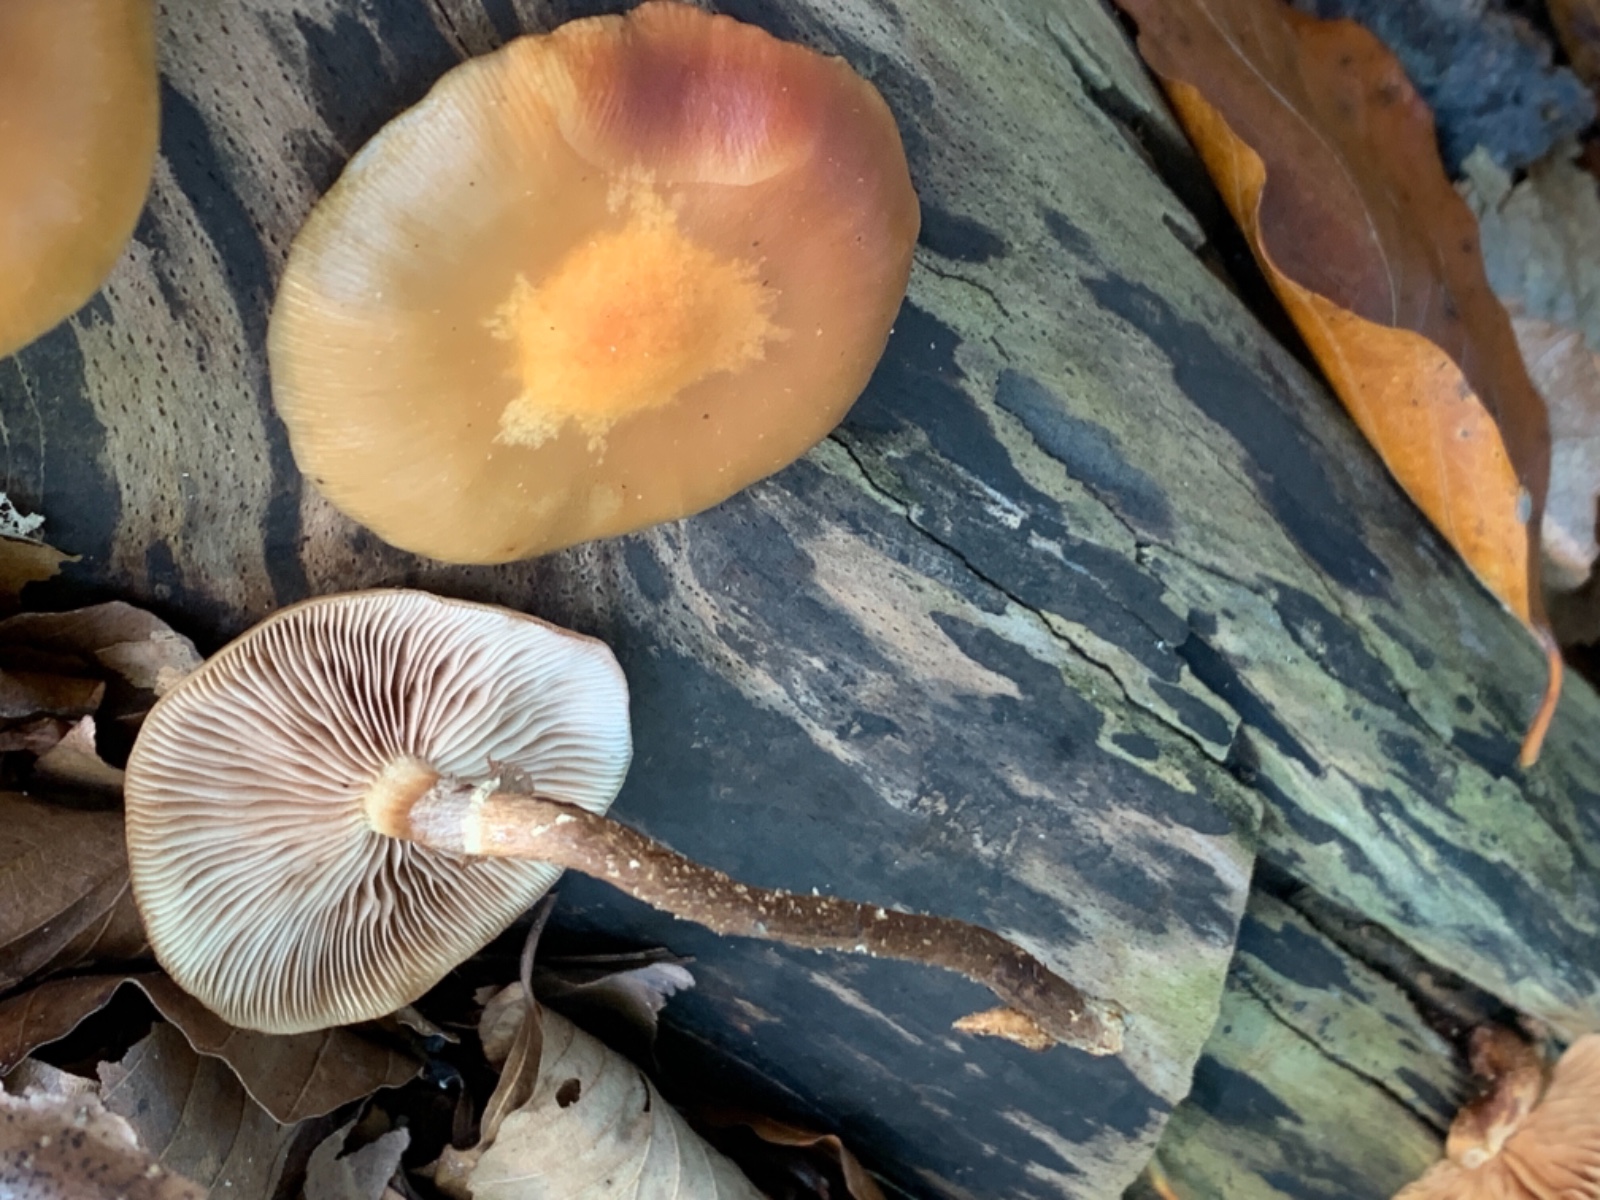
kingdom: Fungi
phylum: Basidiomycota
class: Agaricomycetes
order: Agaricales
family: Strophariaceae
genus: Kuehneromyces
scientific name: Kuehneromyces mutabilis
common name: foranderlig skælhat
